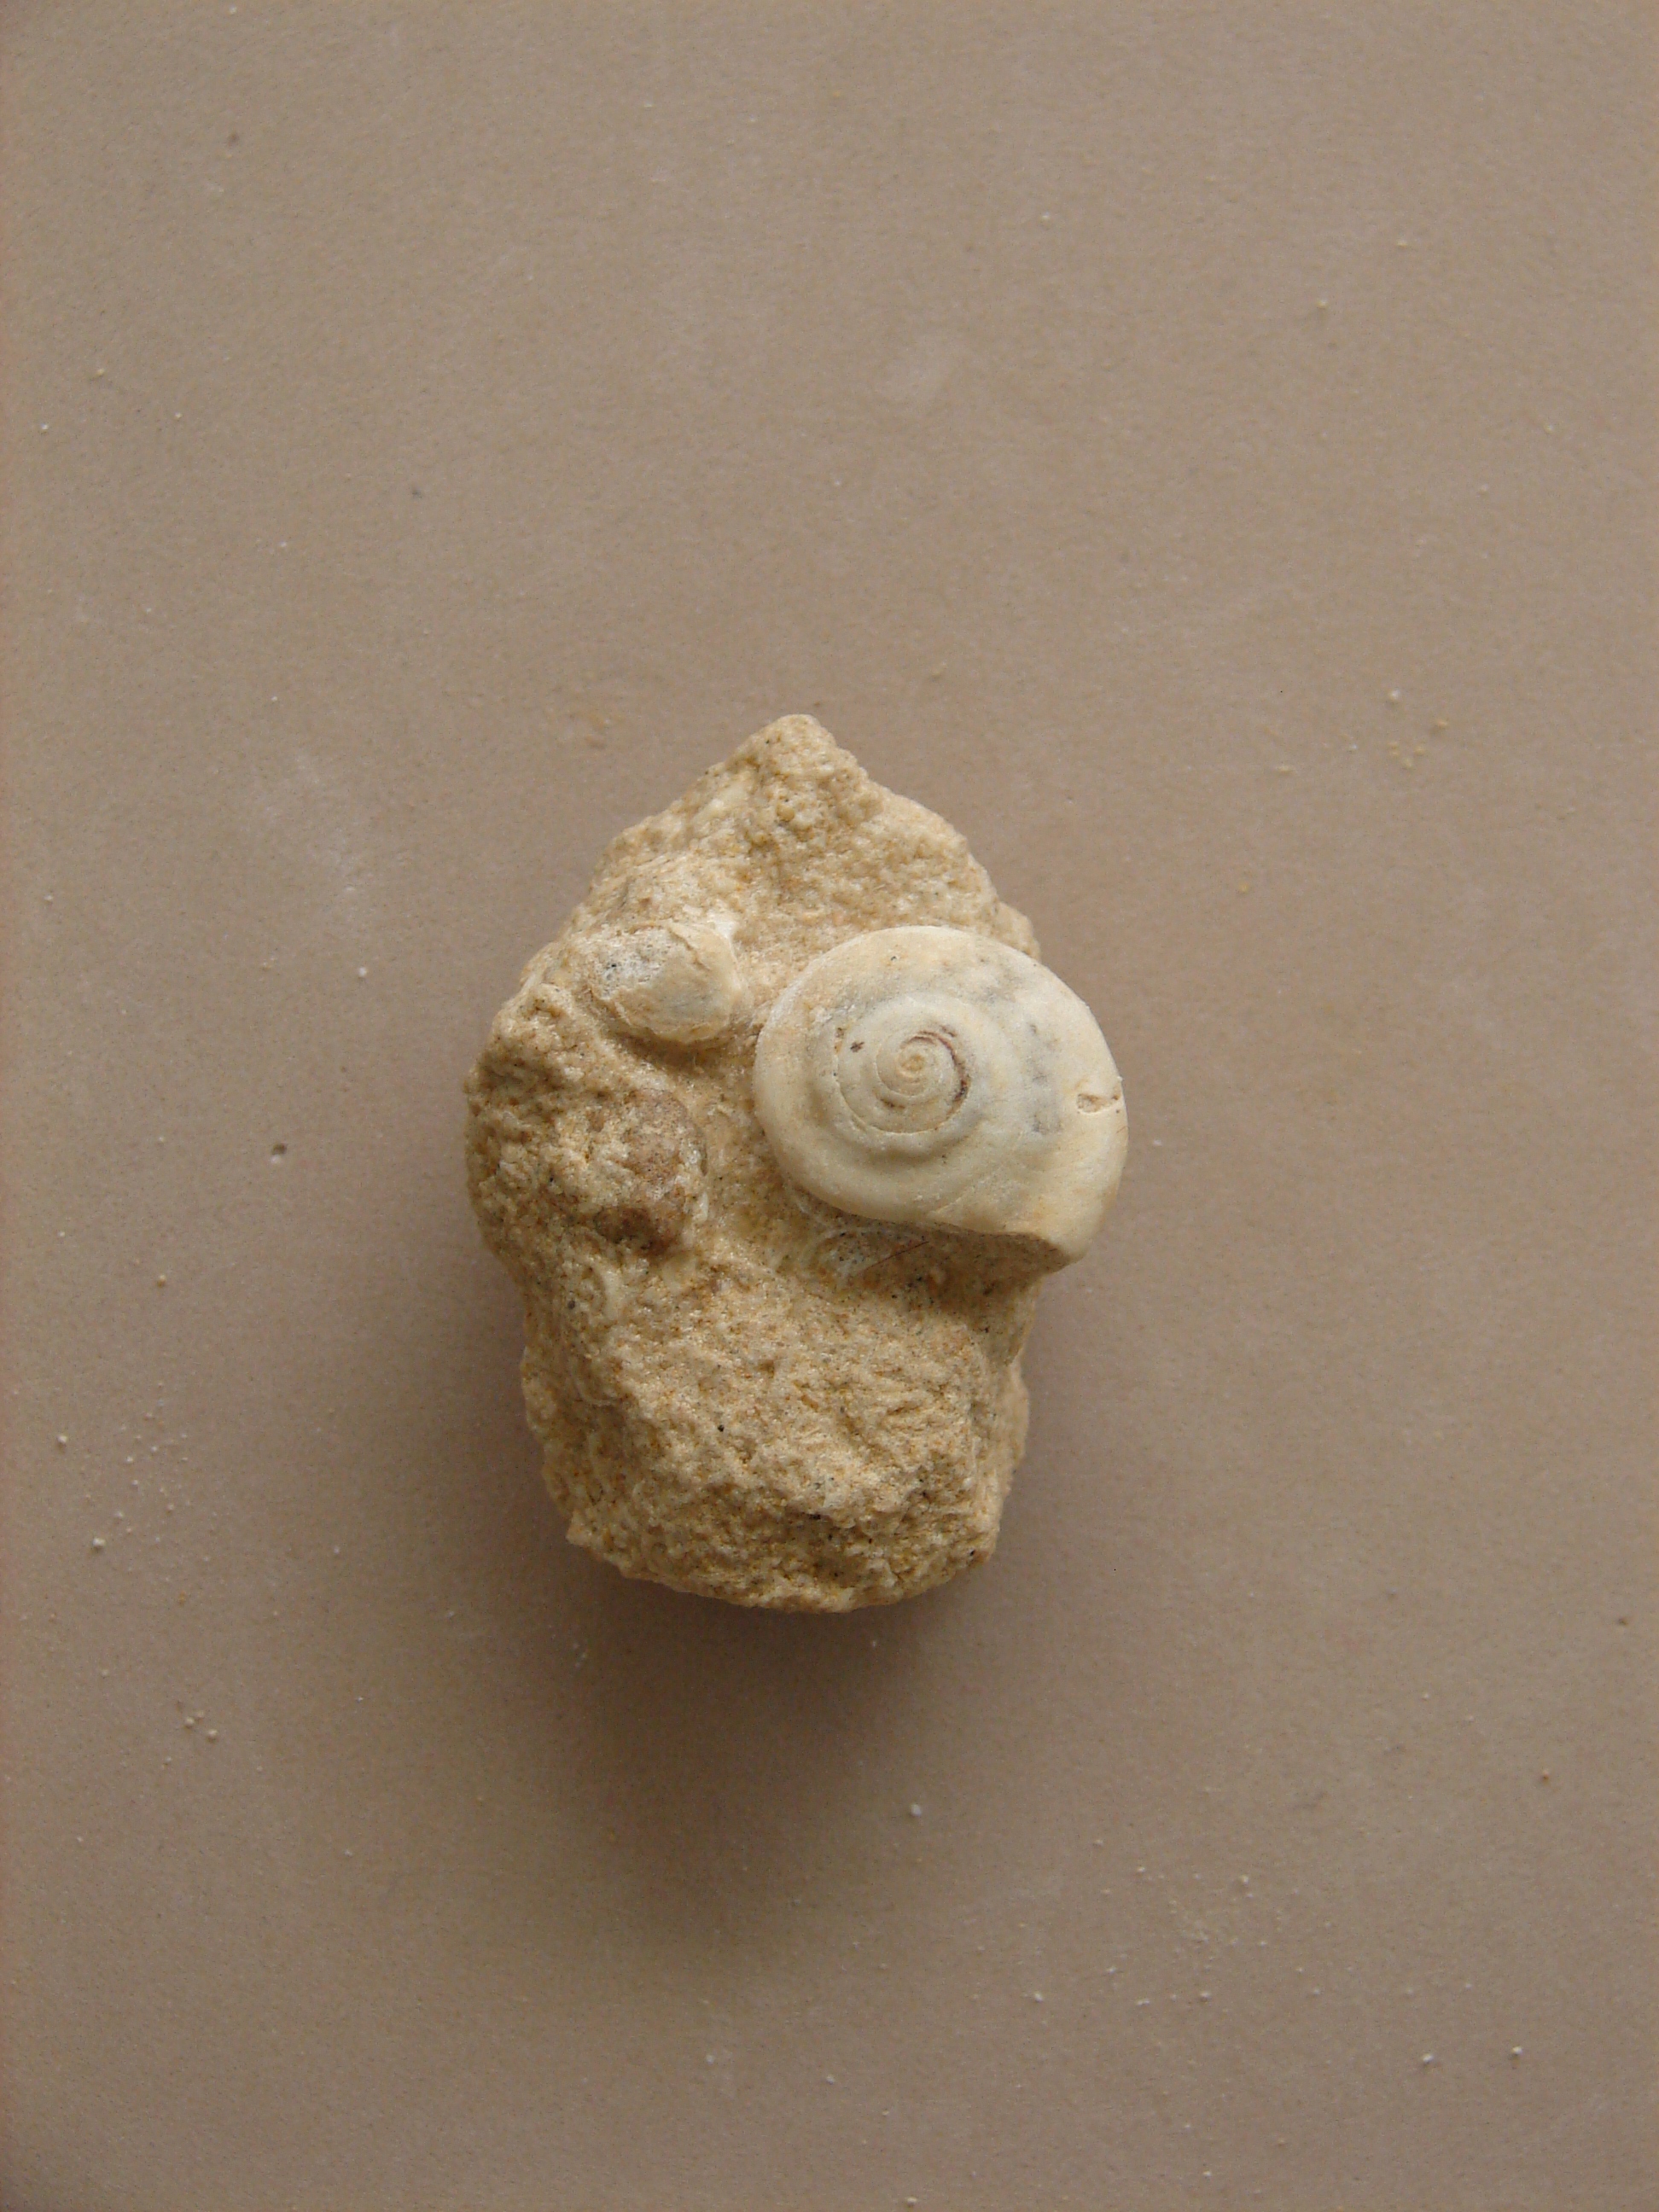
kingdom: Animalia
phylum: Mollusca
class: Gastropoda
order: Pleurotomariida
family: Ptychomphalidae
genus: Ptychomphalus
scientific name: Ptychomphalus Pleurotomaria wehenkeli
